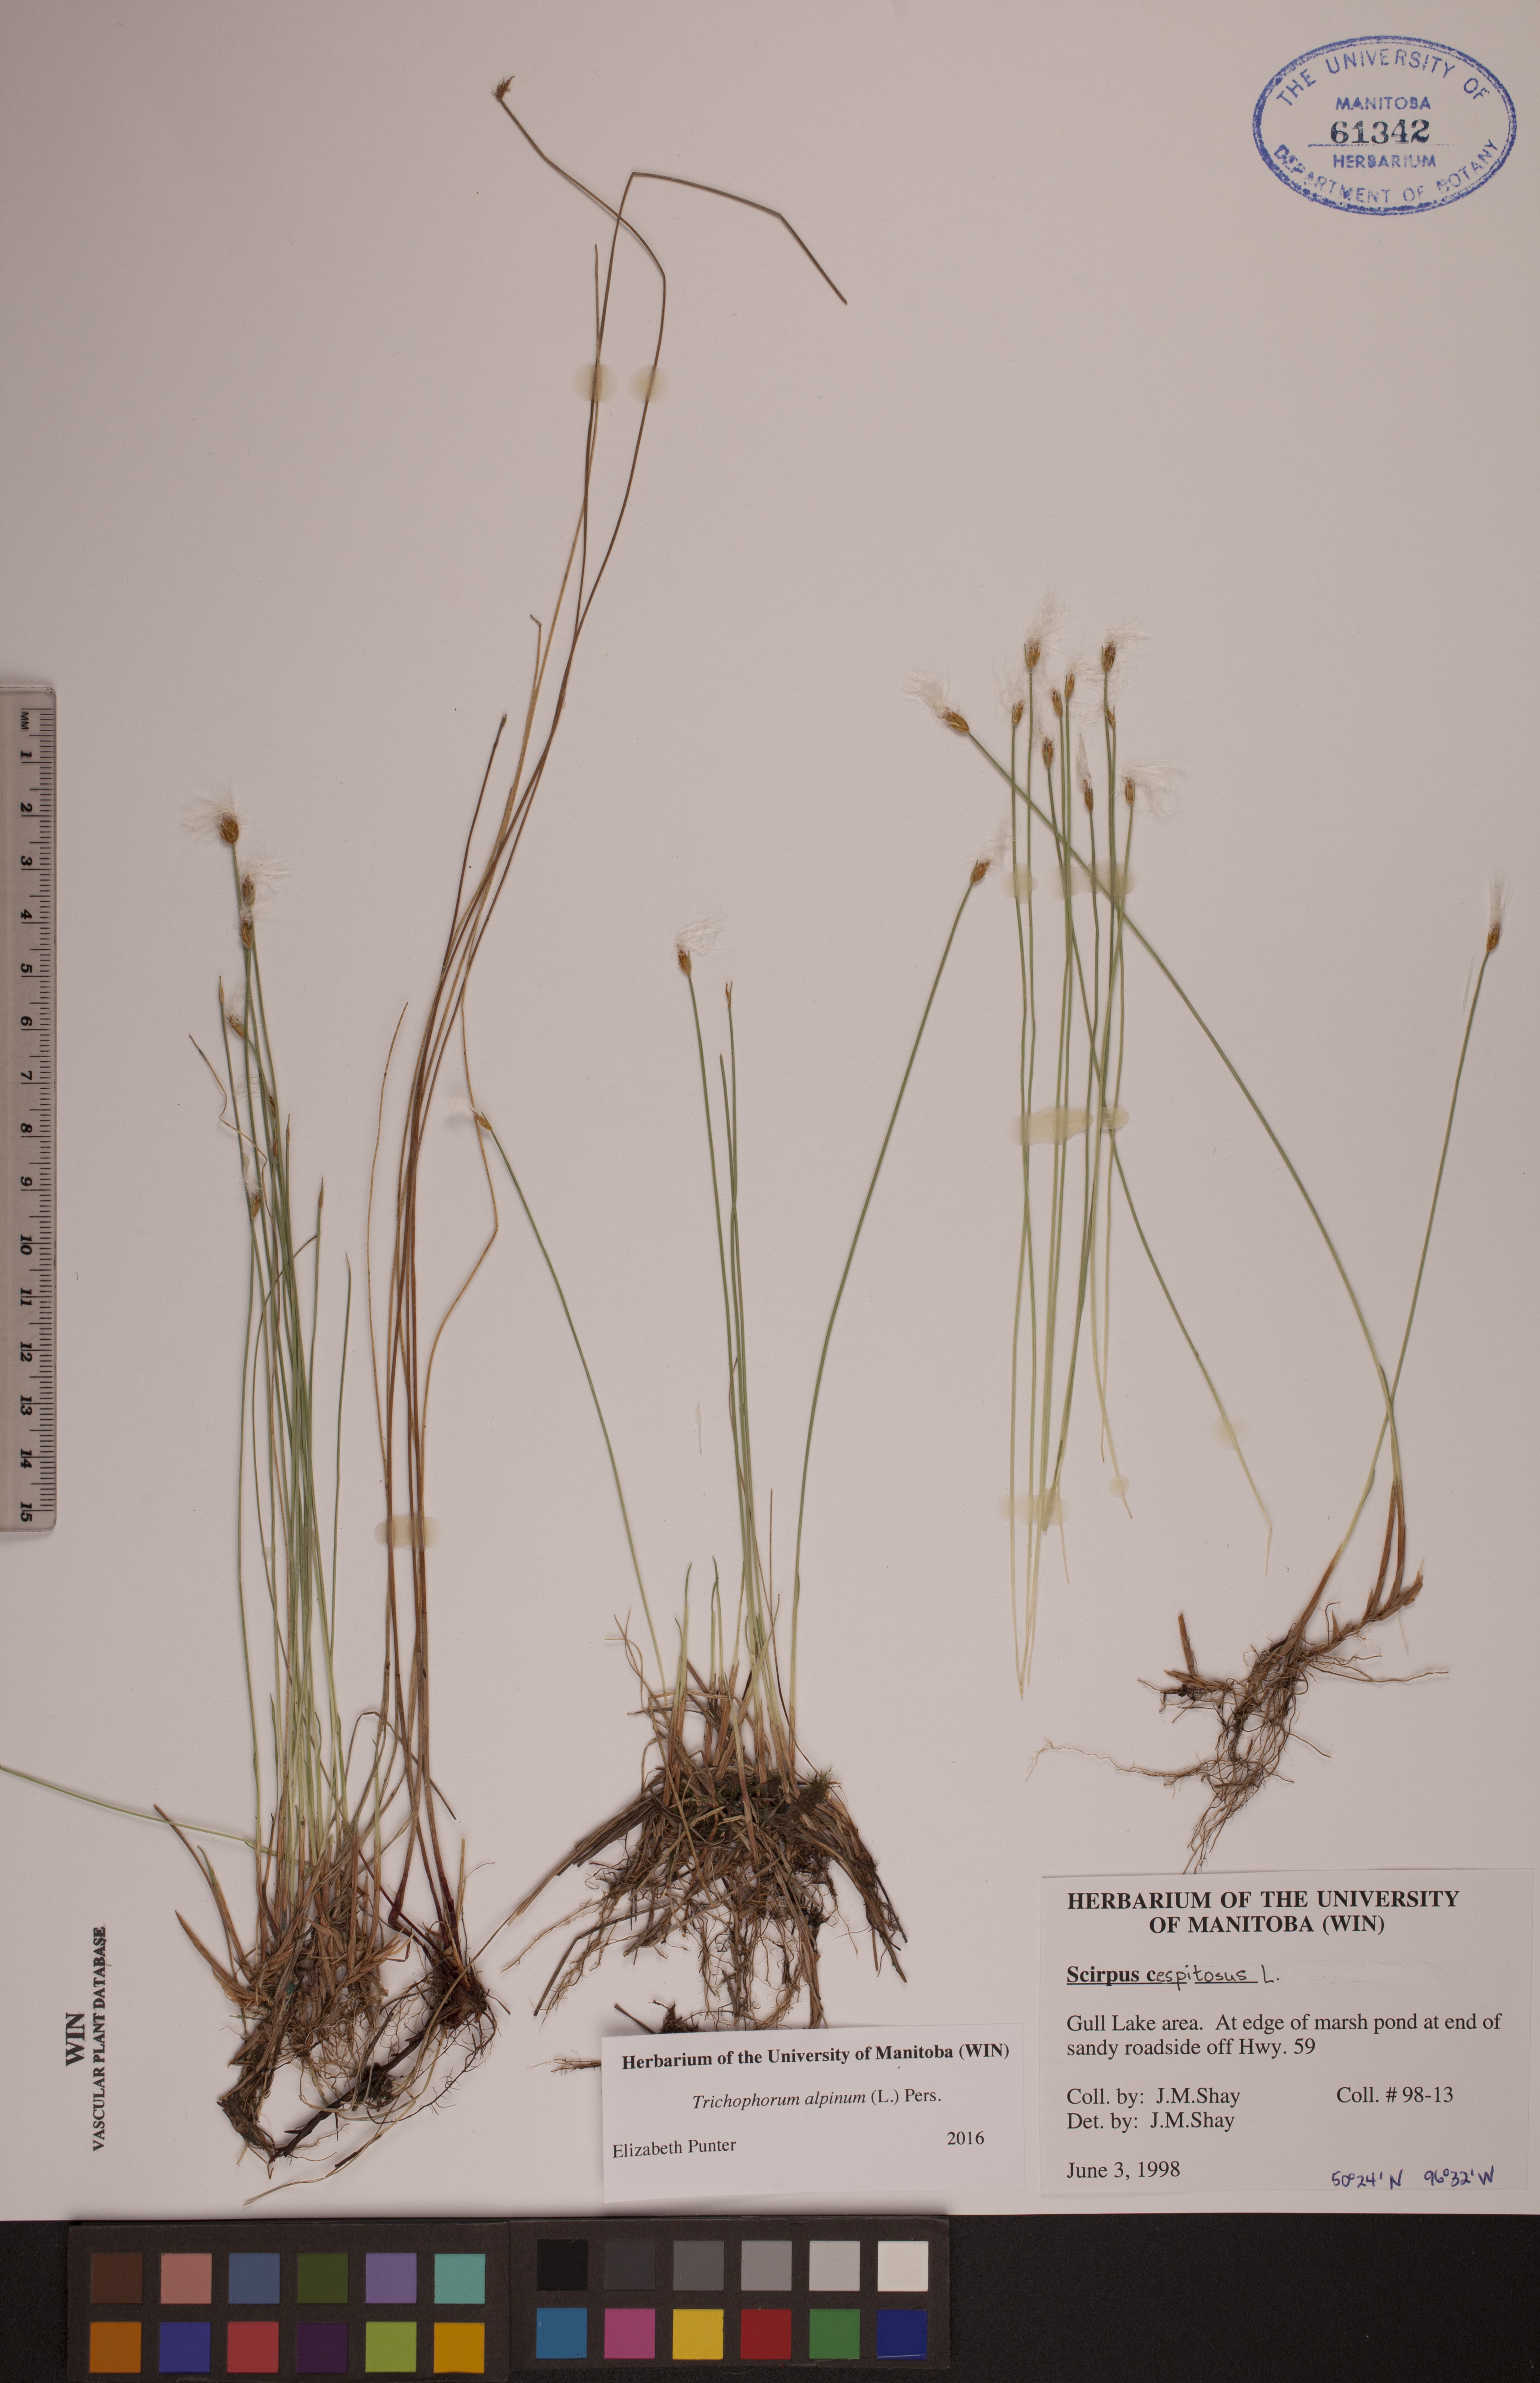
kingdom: Plantae
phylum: Tracheophyta
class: Liliopsida
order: Poales
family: Cyperaceae
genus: Trichophorum
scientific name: Trichophorum alpinum
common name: Alpine bulrush
